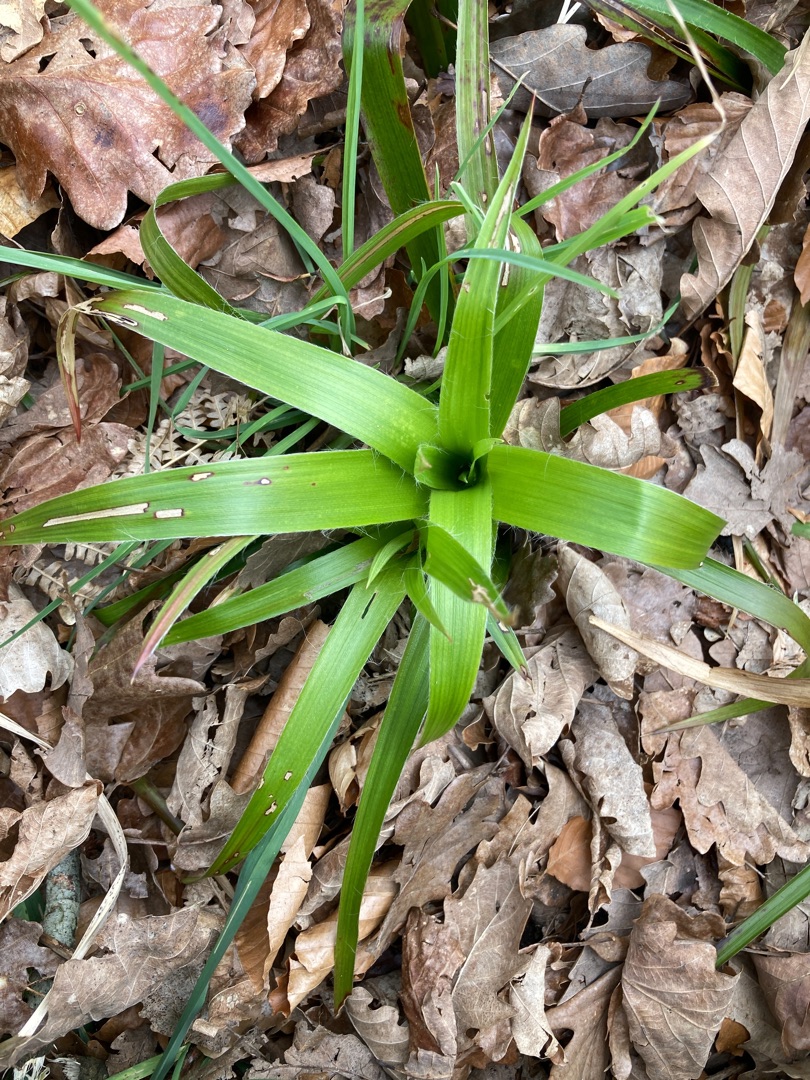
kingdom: Plantae
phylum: Tracheophyta
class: Liliopsida
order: Poales
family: Juncaceae
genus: Luzula
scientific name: Luzula sylvatica
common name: Stor frytle
